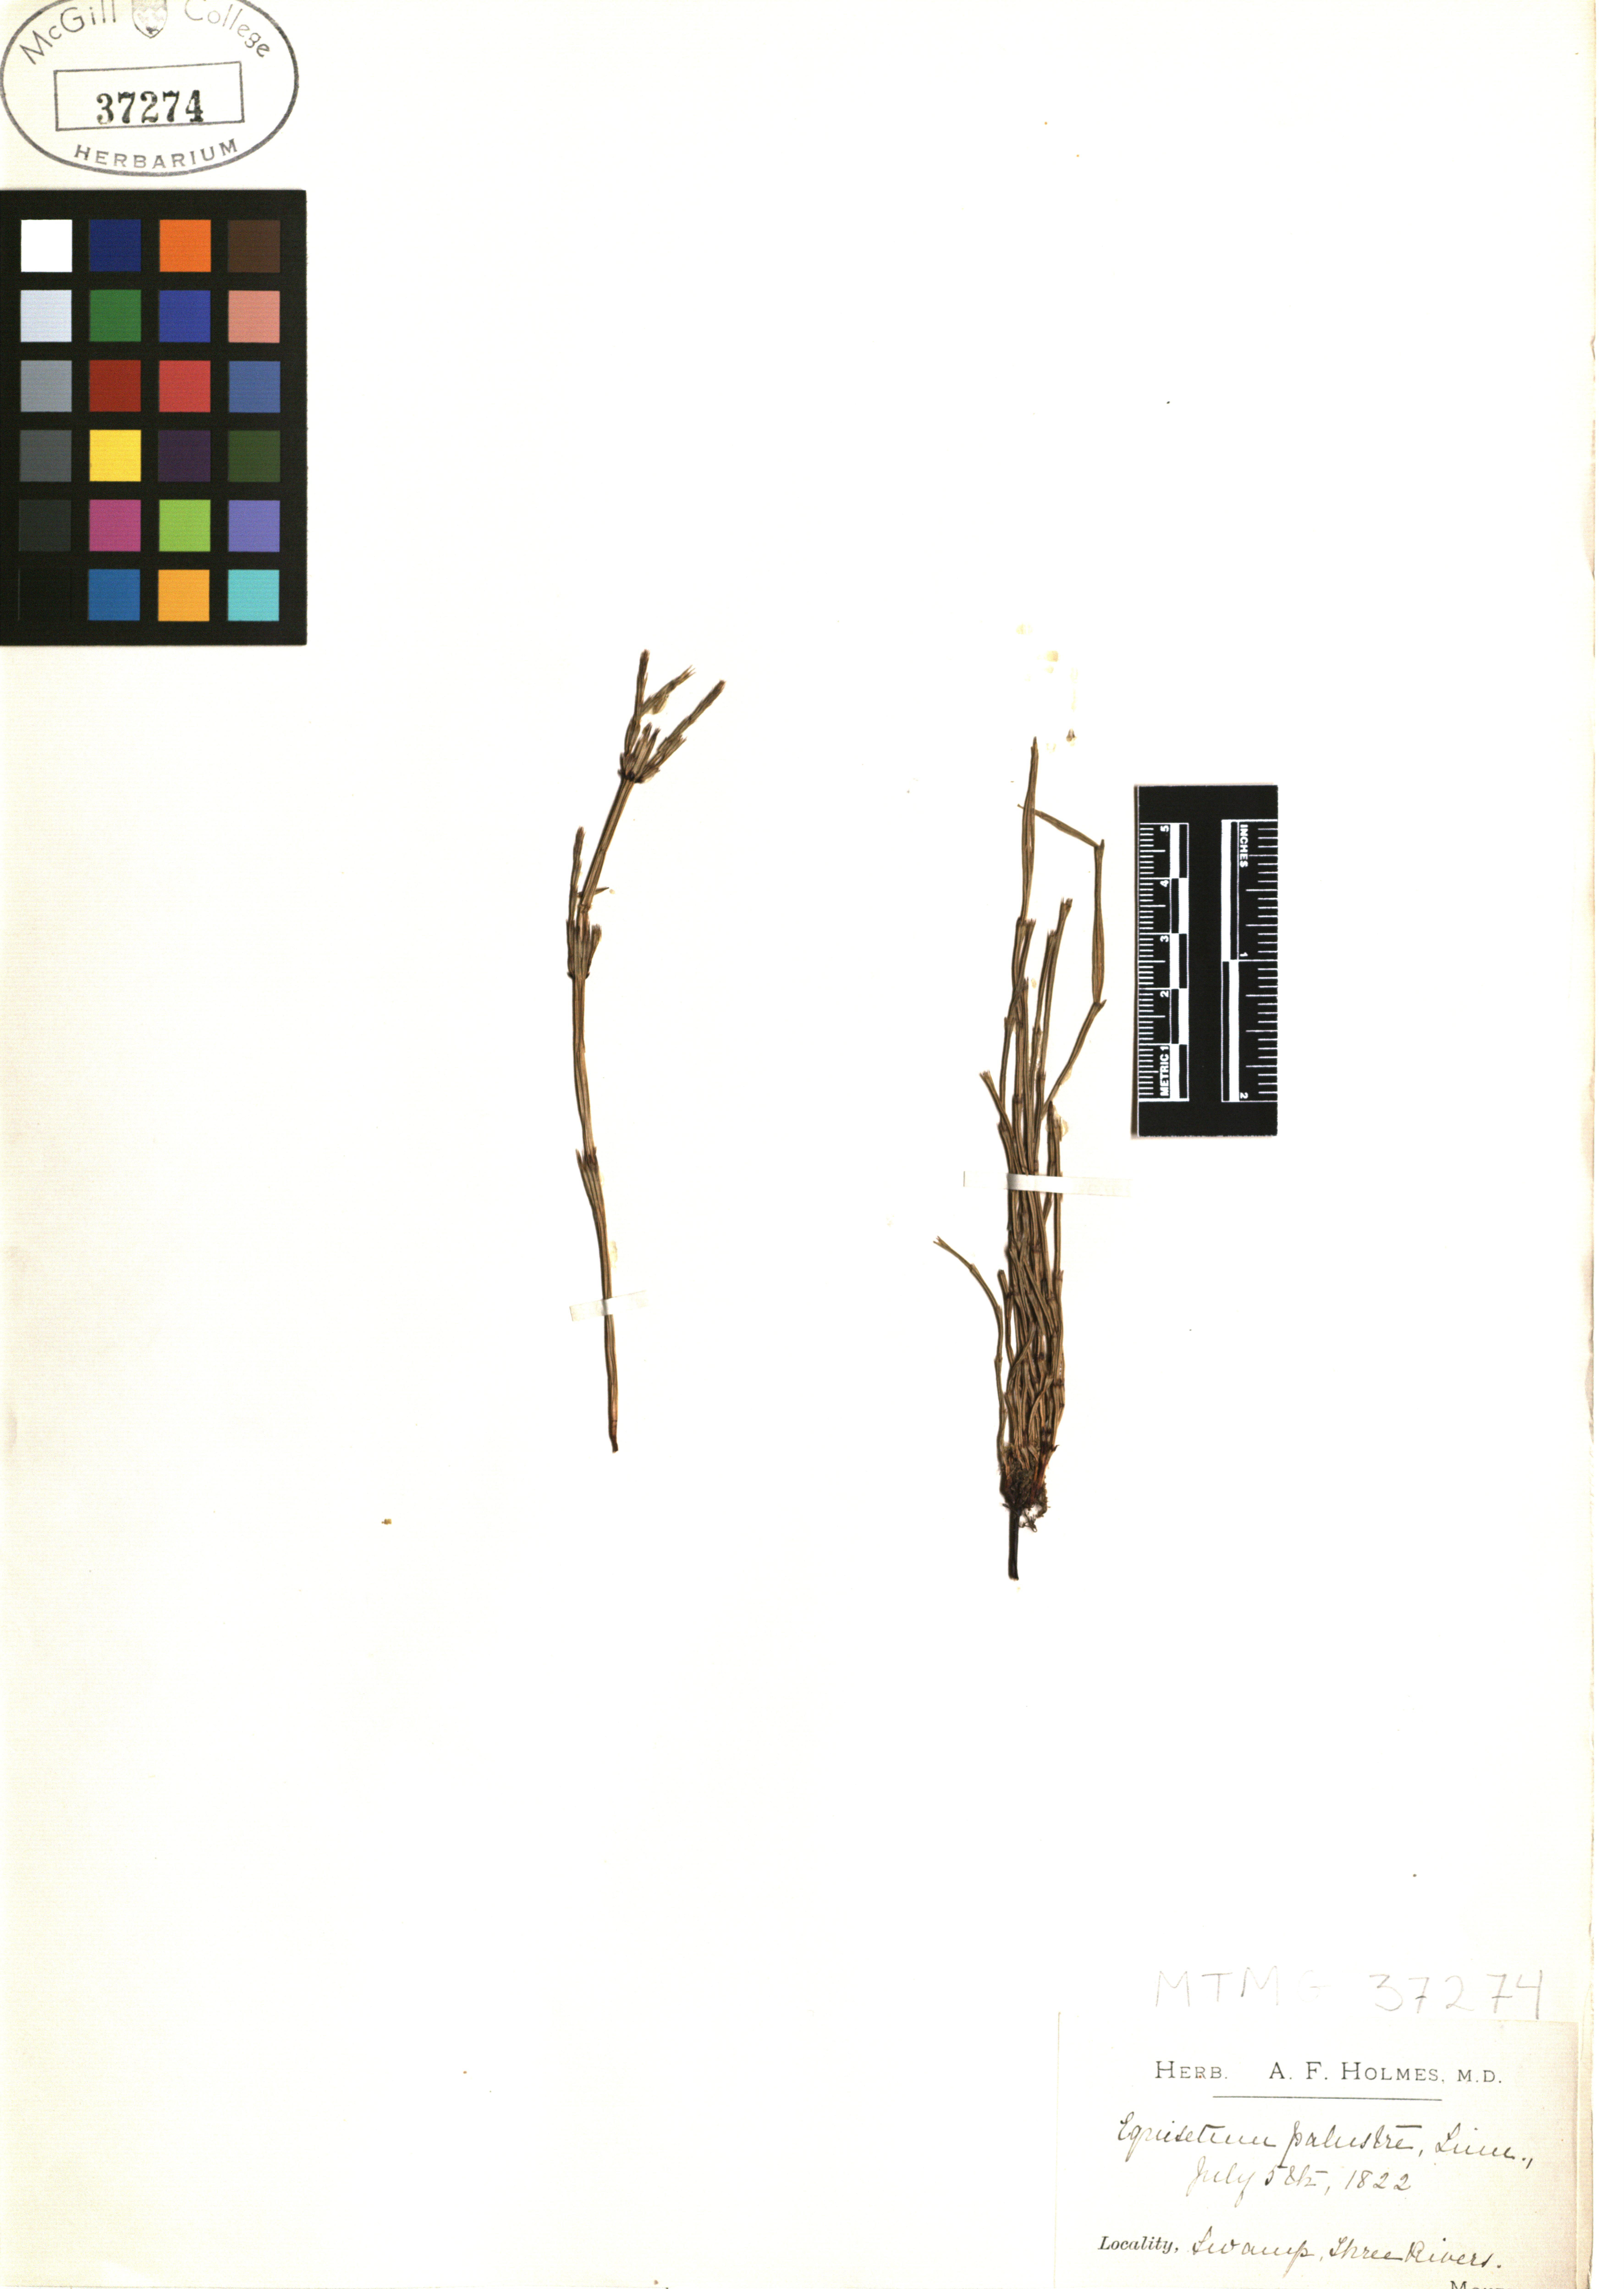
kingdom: Plantae
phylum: Tracheophyta
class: Polypodiopsida
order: Equisetales
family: Equisetaceae
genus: Equisetum
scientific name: Equisetum palustre
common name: Marsh horsetail
